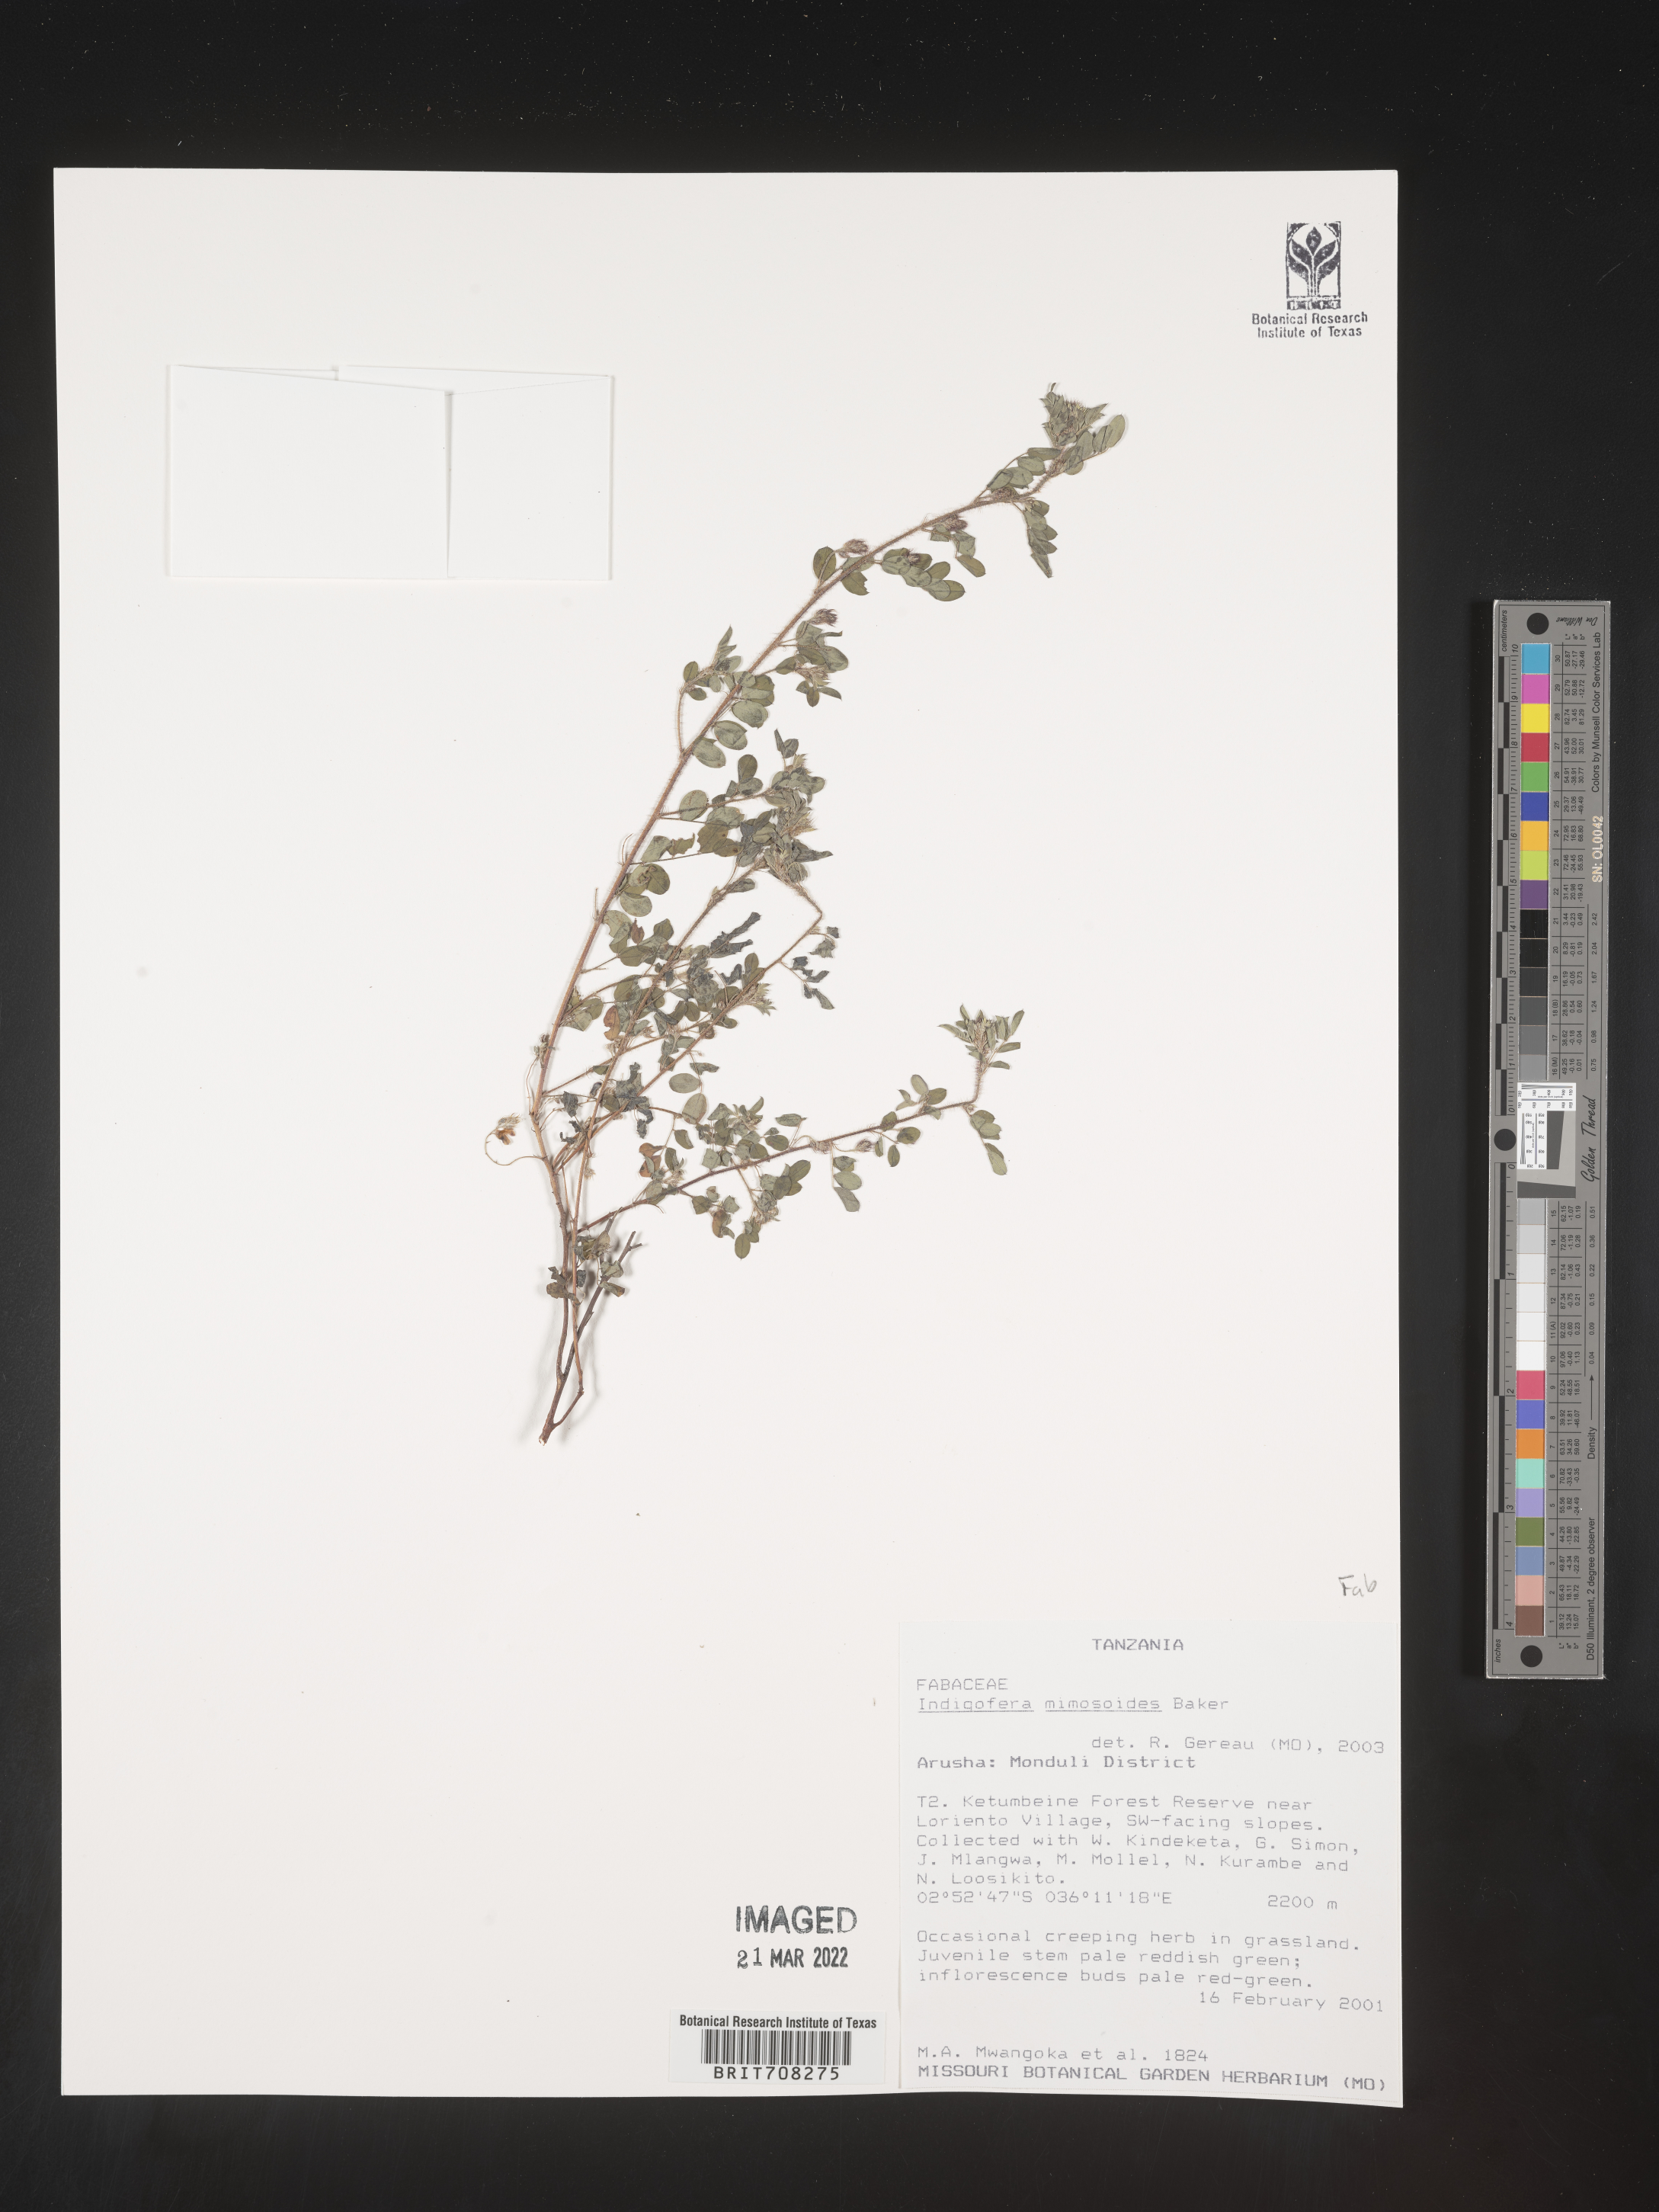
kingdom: Plantae
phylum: Tracheophyta
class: Magnoliopsida
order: Fabales
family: Fabaceae
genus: Indigofera
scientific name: Indigofera
